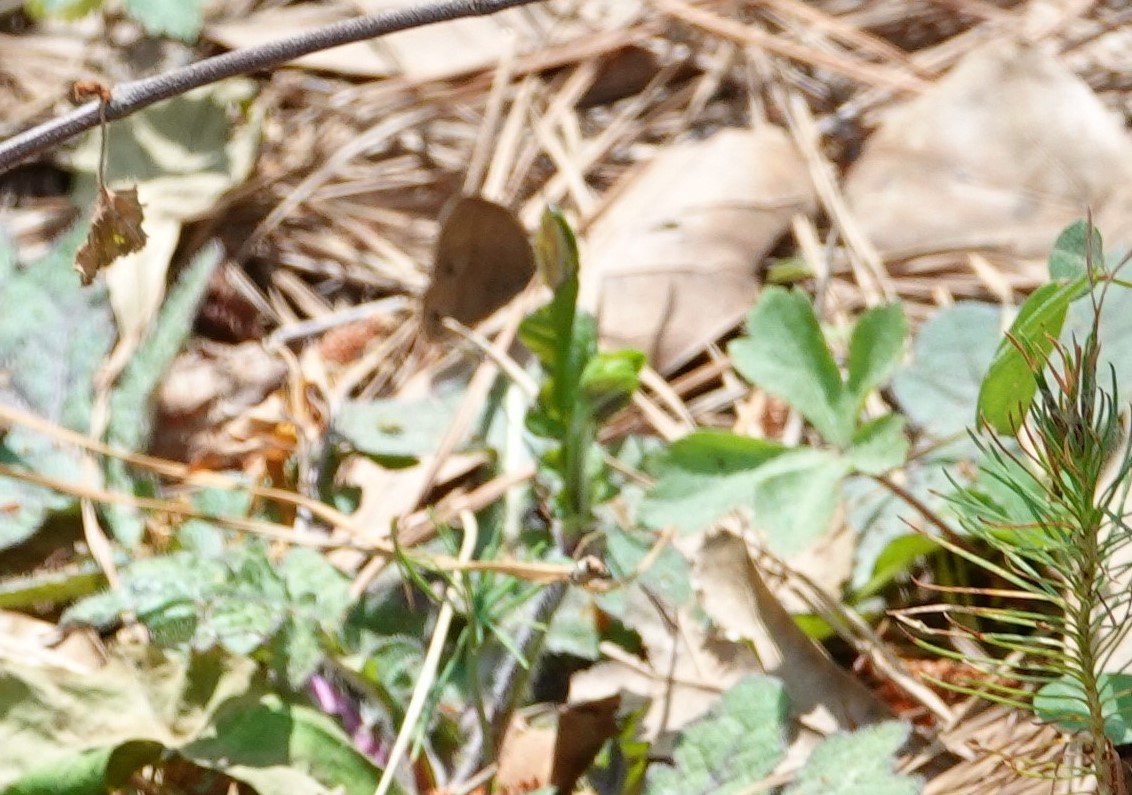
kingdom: Animalia
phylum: Arthropoda
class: Insecta
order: Lepidoptera
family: Nymphalidae
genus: Hermeuptychia
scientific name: Hermeuptychia hermes
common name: Carolina Satyr
